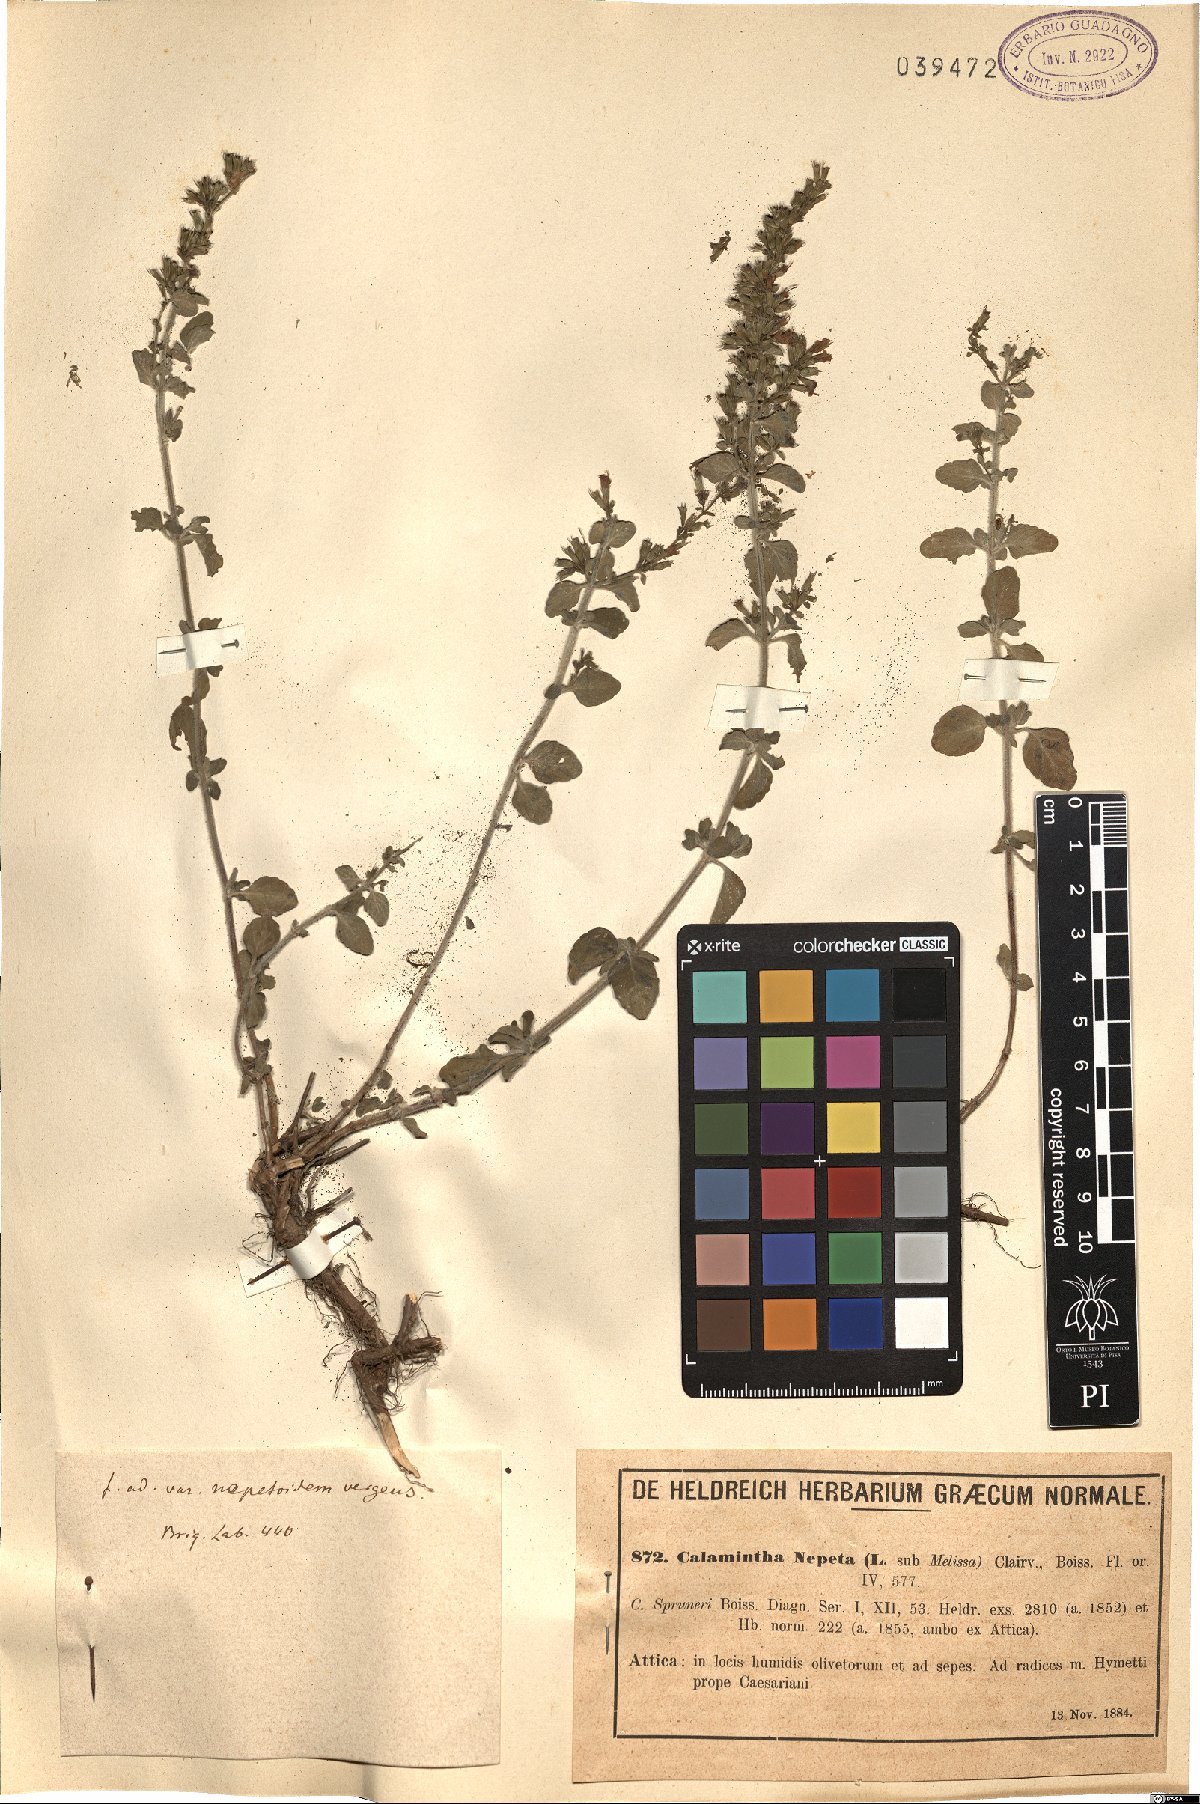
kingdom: Plantae
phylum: Tracheophyta
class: Magnoliopsida
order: Lamiales
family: Lamiaceae
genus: Clinopodium
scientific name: Clinopodium nepeta
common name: Lesser calamint
